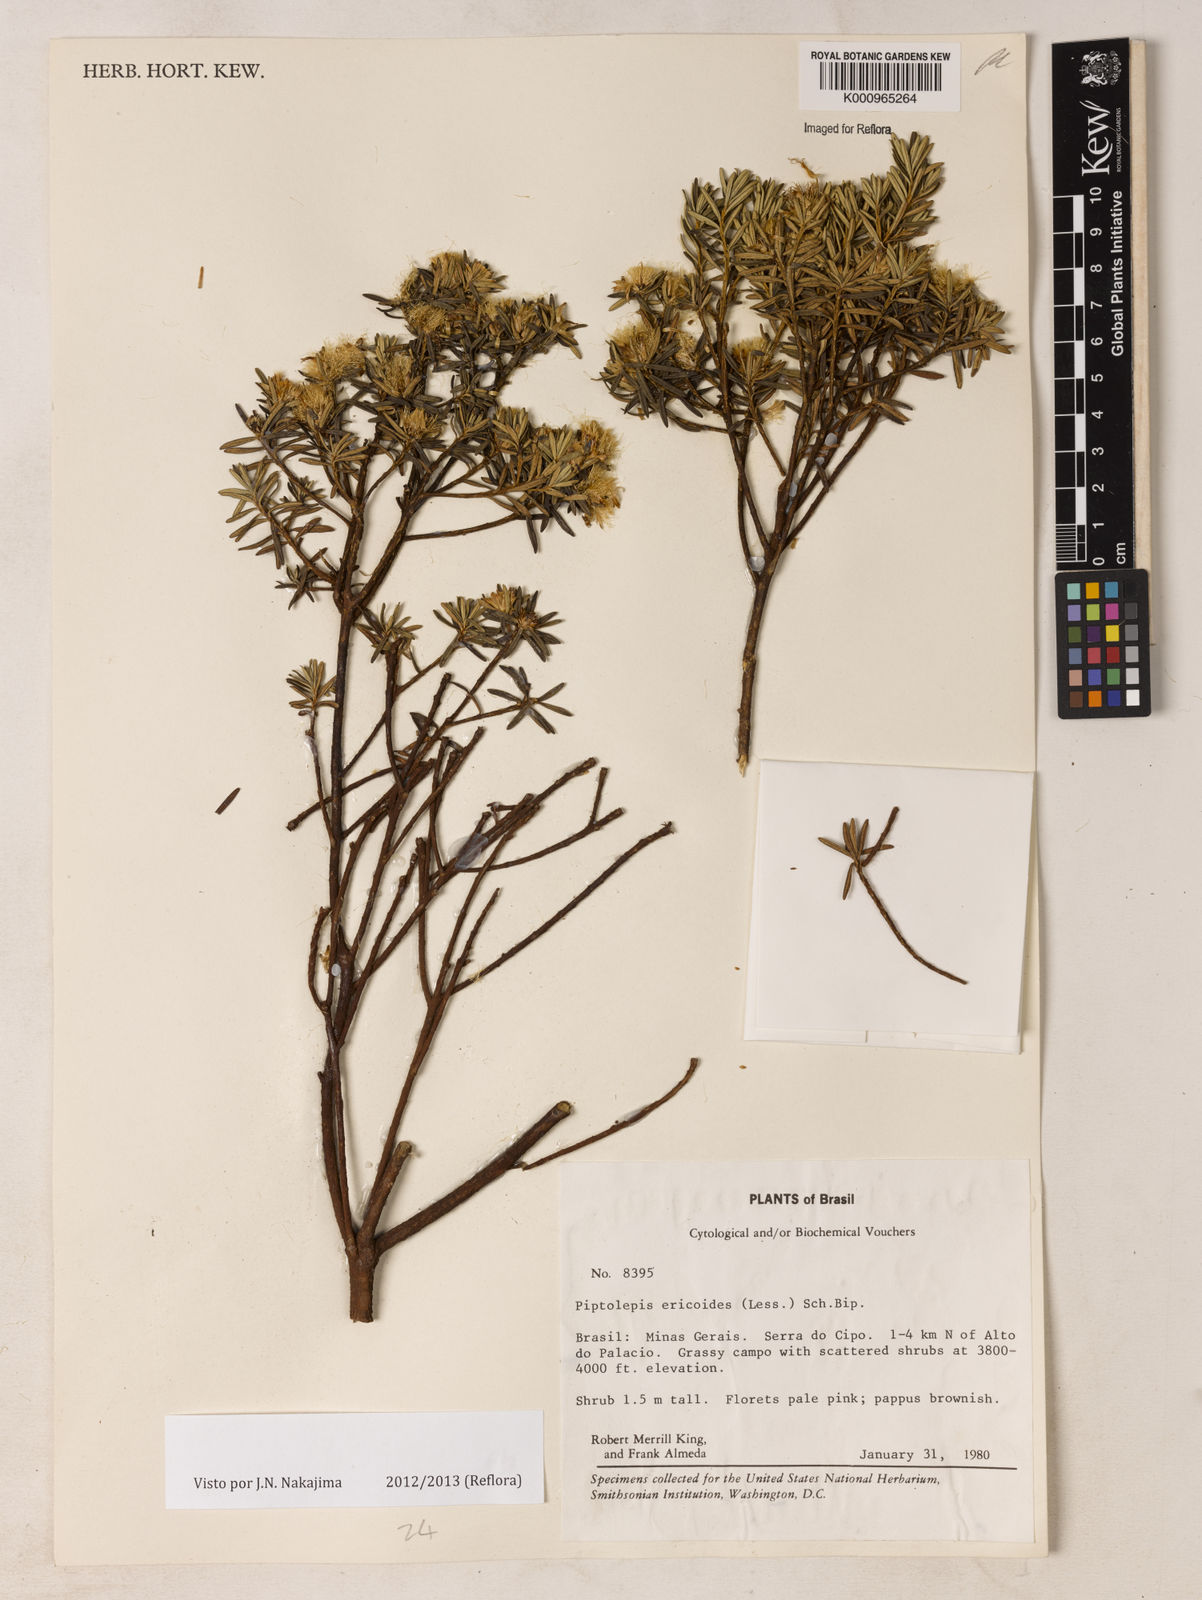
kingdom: Plantae
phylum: Tracheophyta
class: Magnoliopsida
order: Asterales
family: Asteraceae
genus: Piptolepis
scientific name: Piptolepis ericoides
